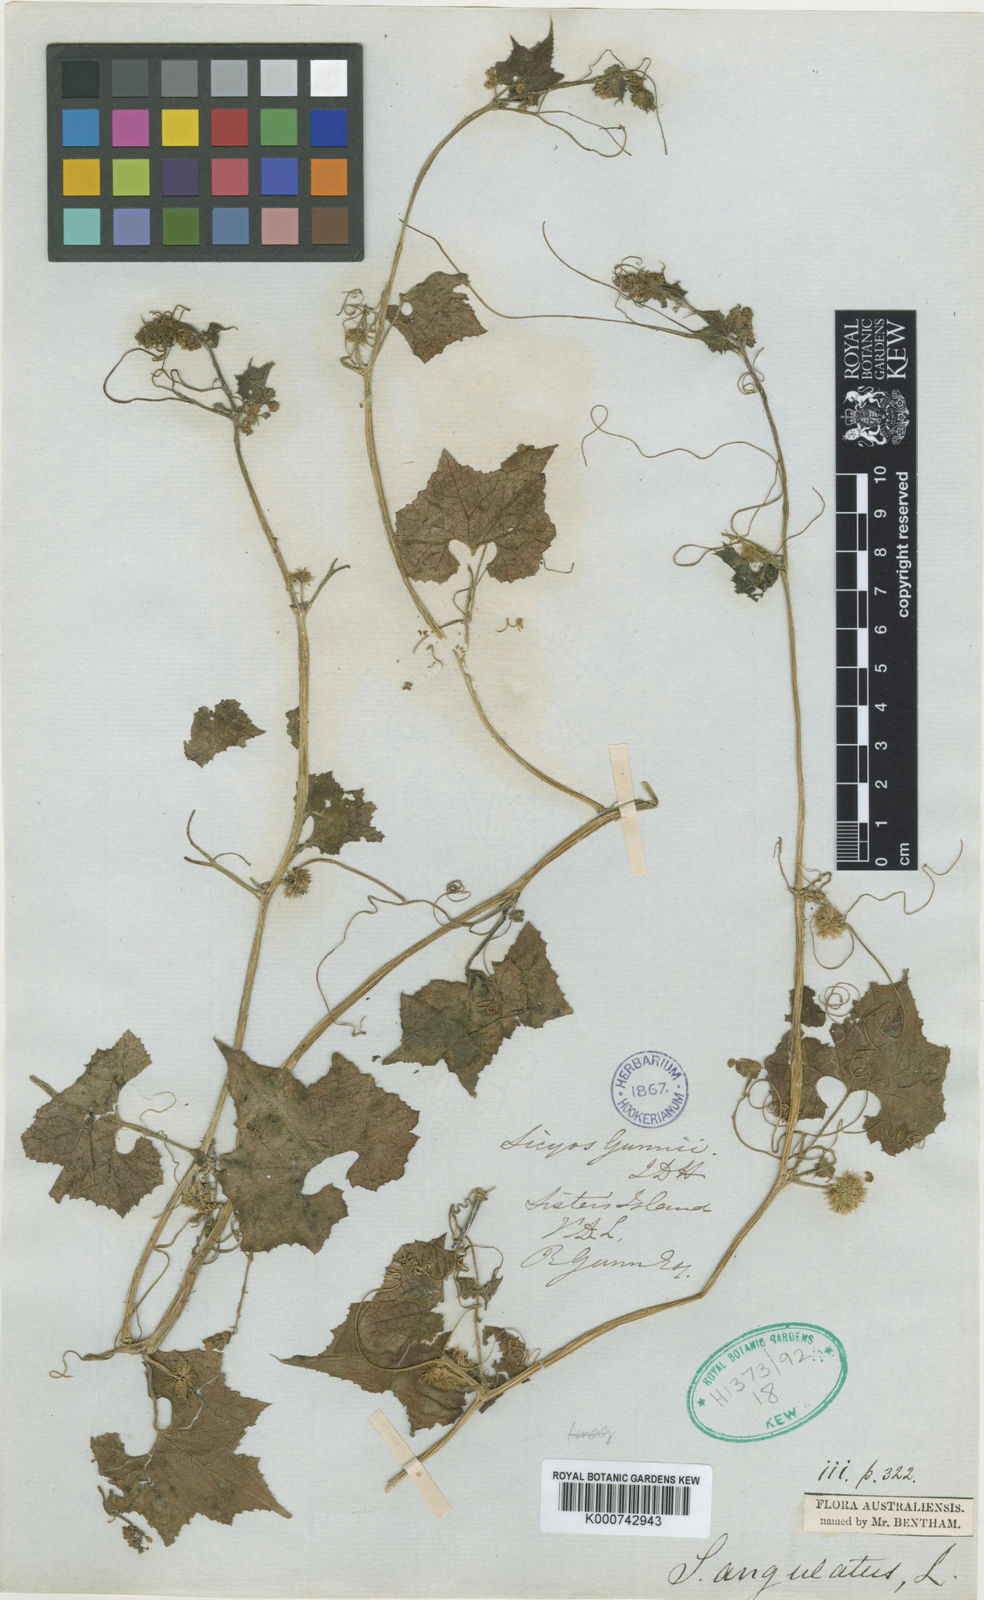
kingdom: Plantae
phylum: Tracheophyta
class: Magnoliopsida
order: Cucurbitales
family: Cucurbitaceae
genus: Sicyos
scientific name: Sicyos australis
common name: Angle-cucumber
